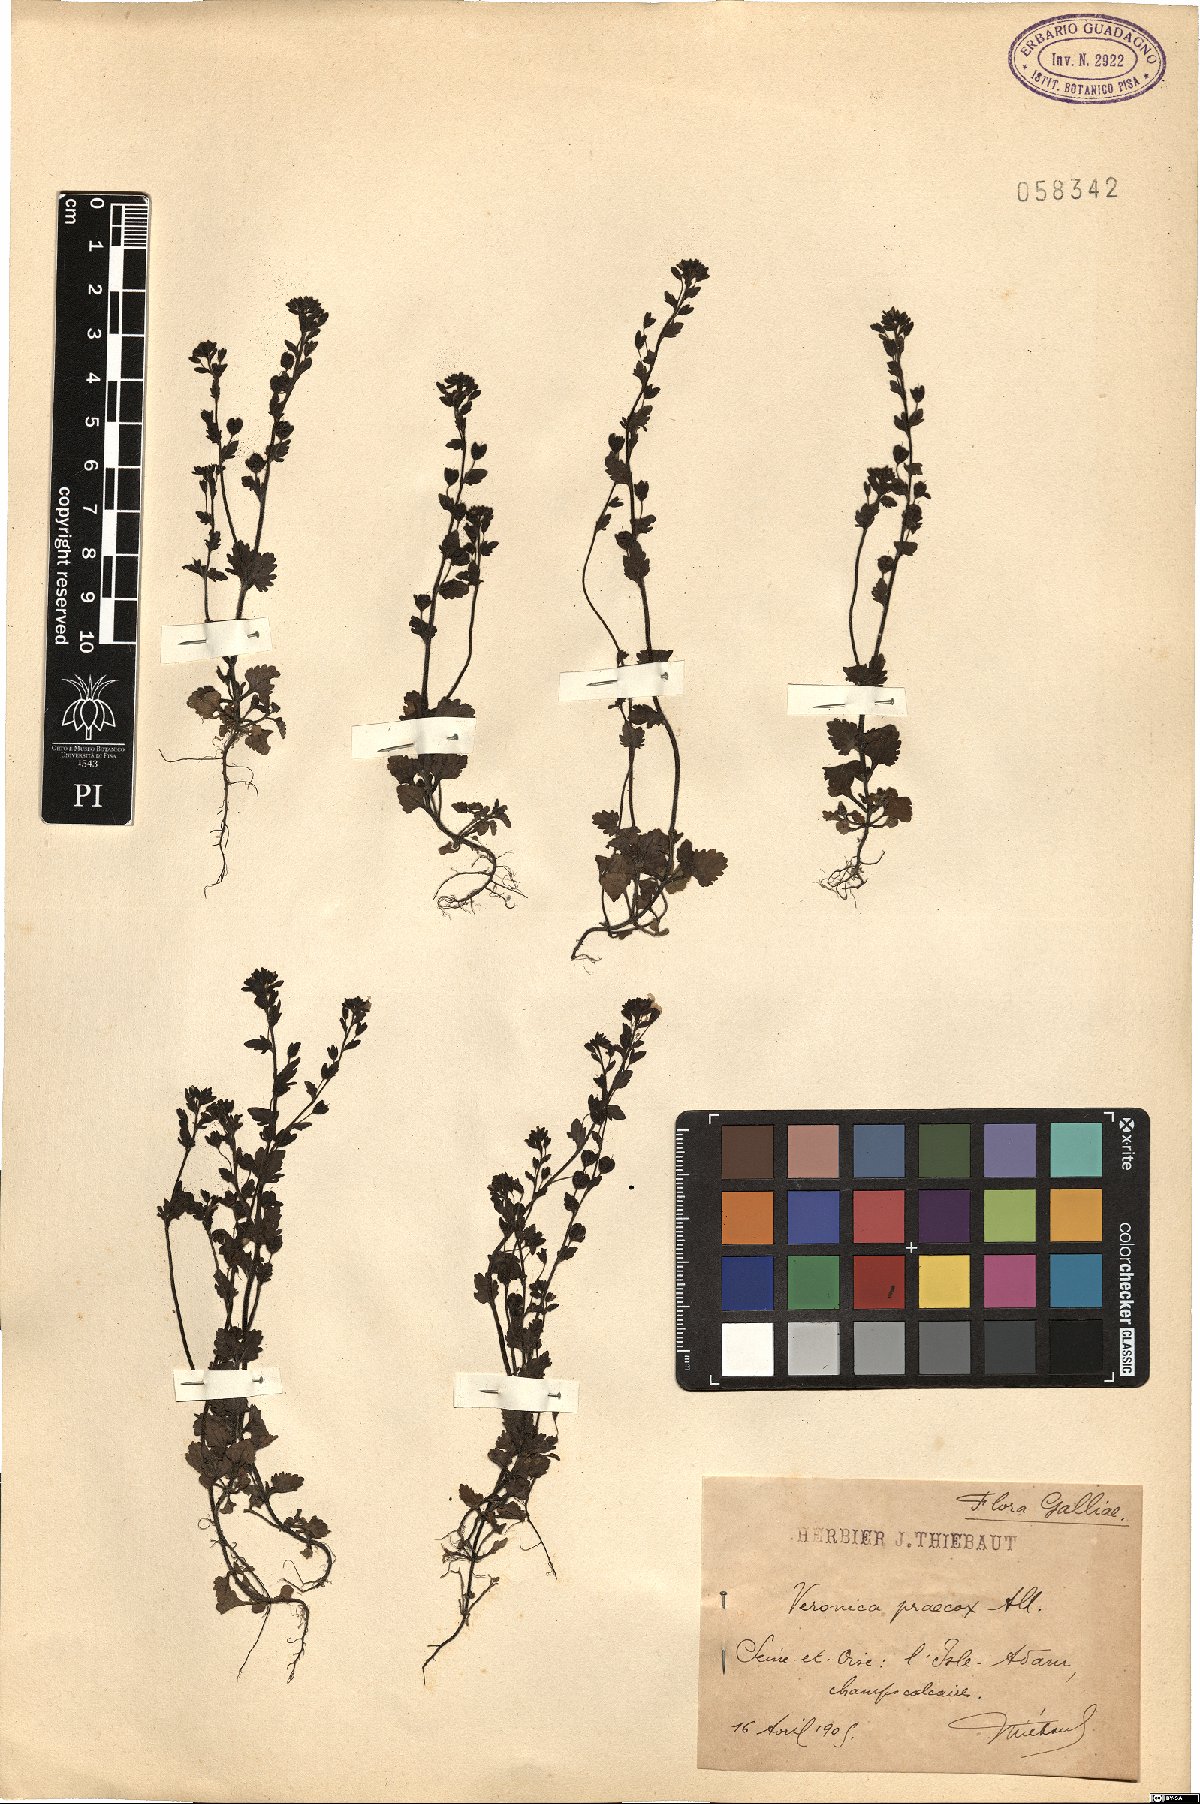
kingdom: Plantae
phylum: Tracheophyta
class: Magnoliopsida
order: Lamiales
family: Plantaginaceae
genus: Veronica
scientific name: Veronica praecox
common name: Breckland speedwell
